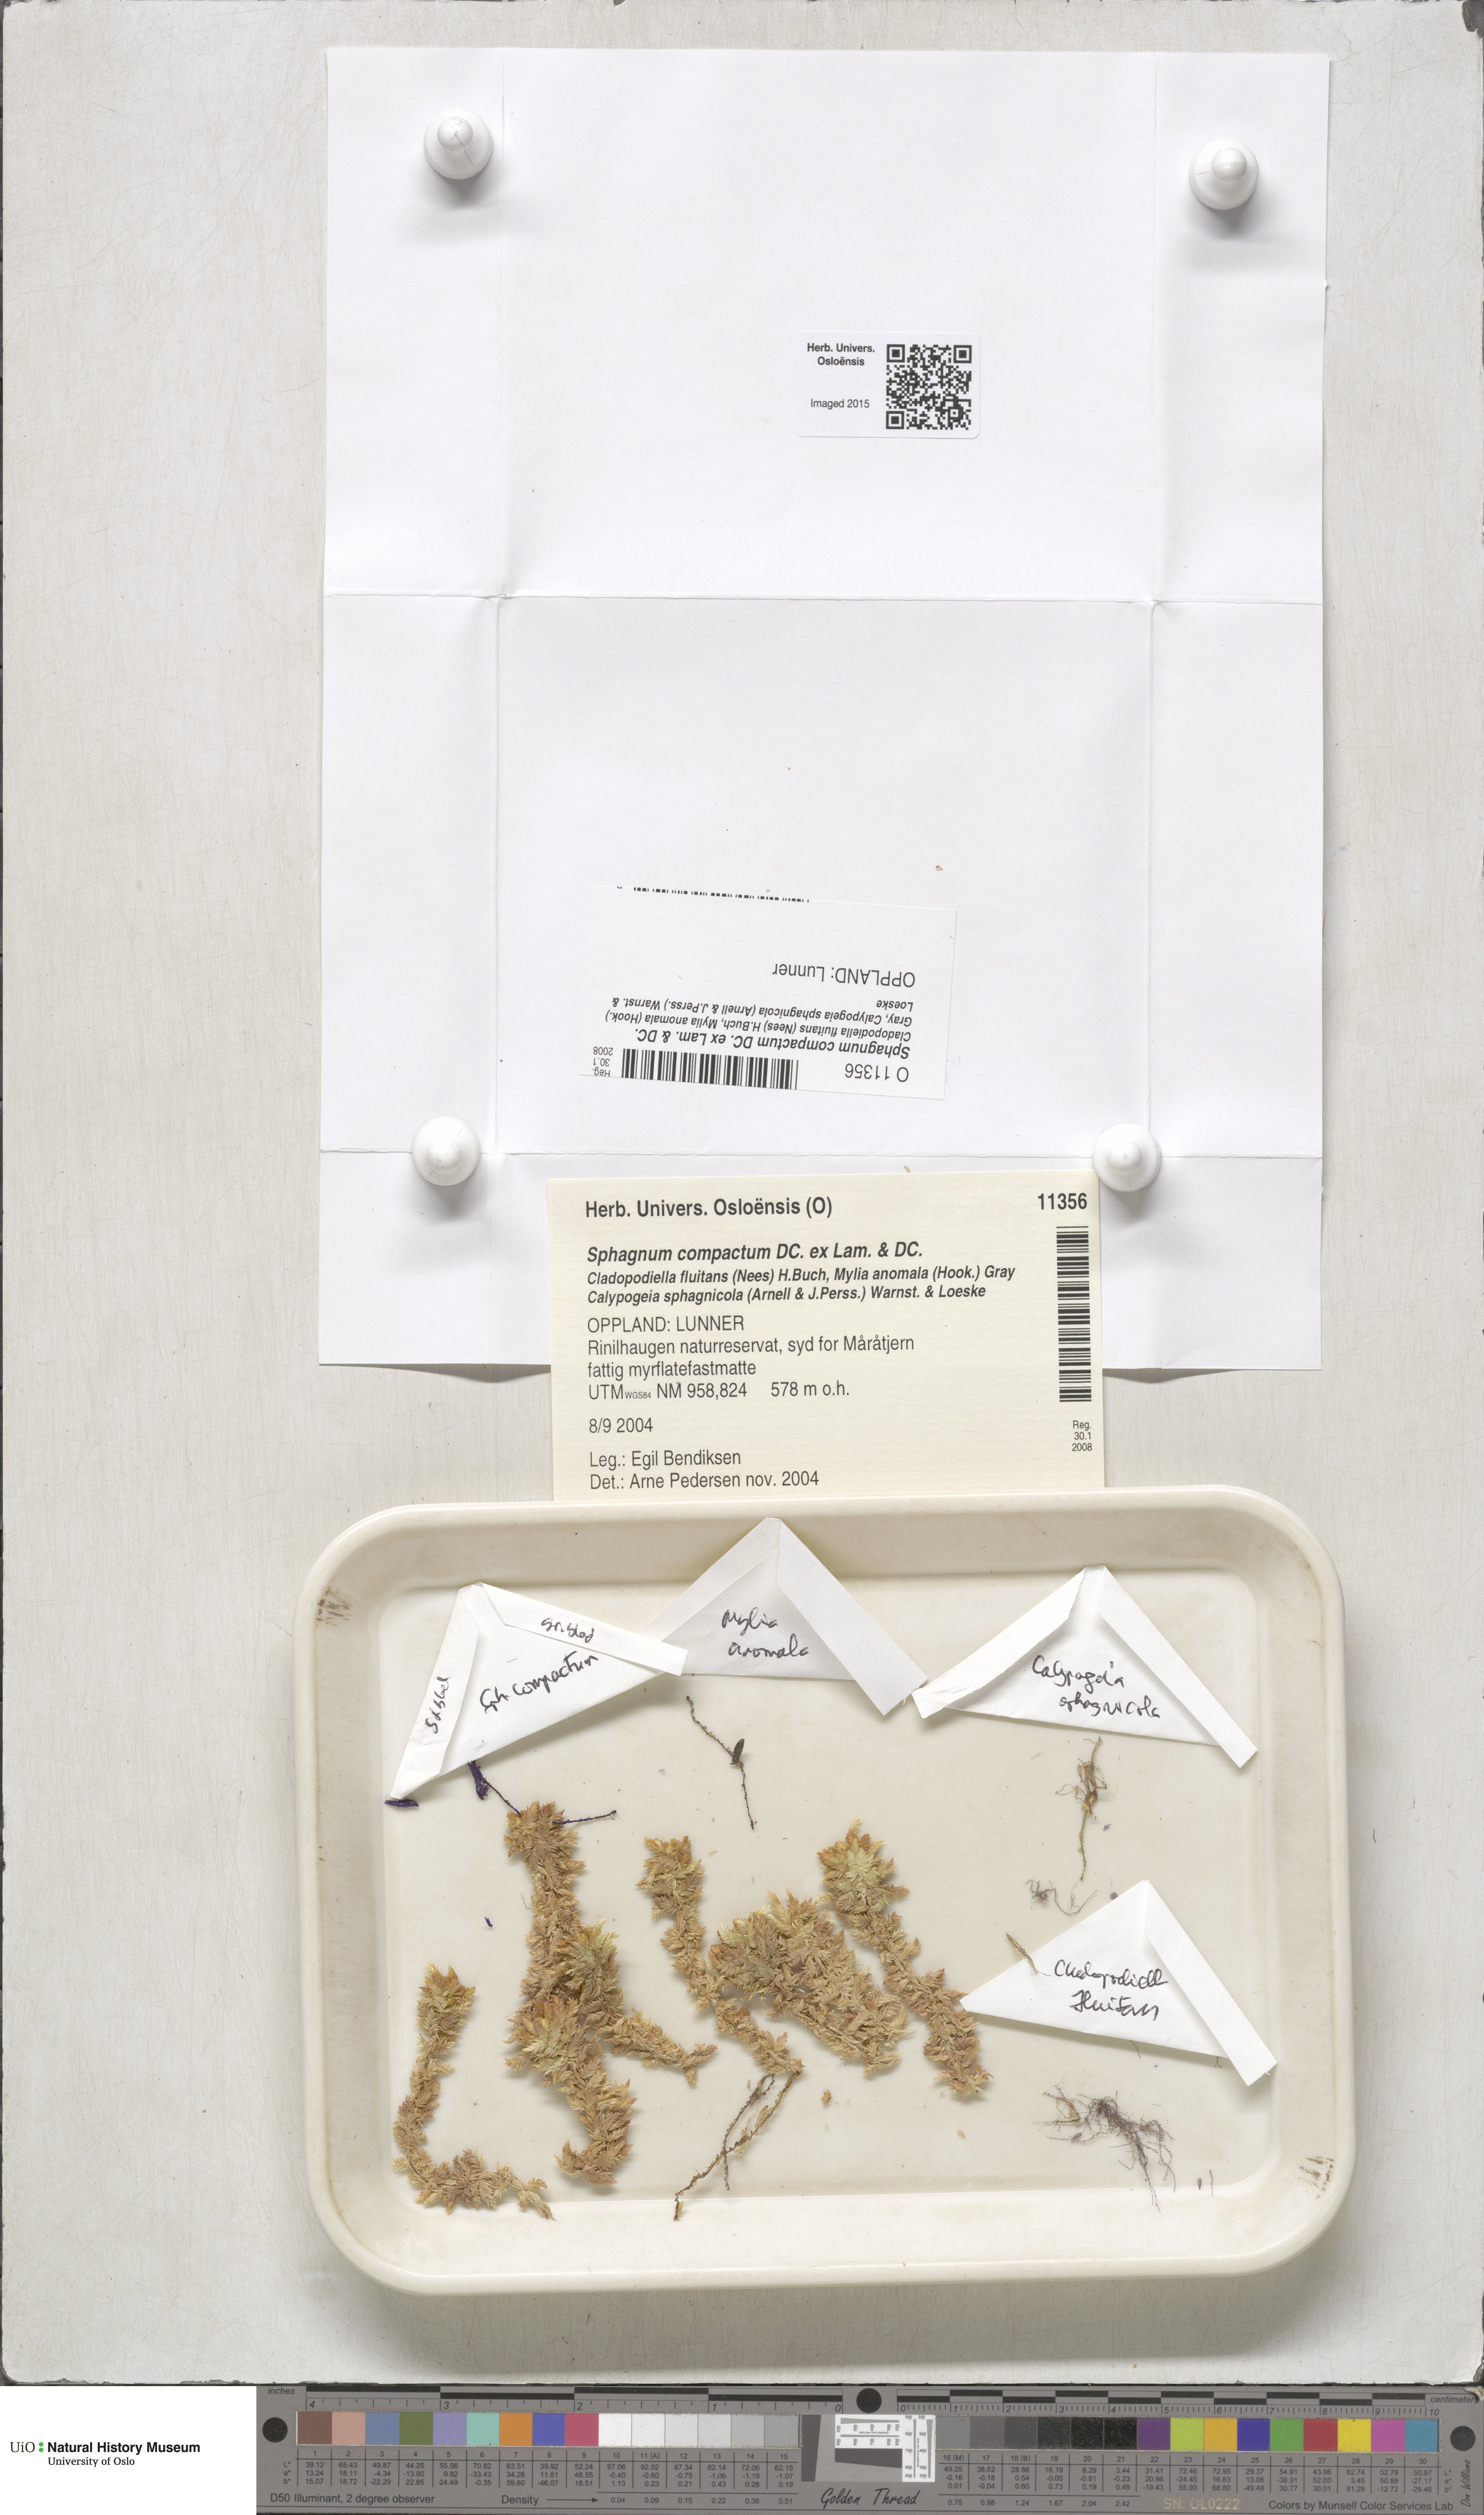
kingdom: Plantae
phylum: Bryophyta
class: Sphagnopsida
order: Sphagnales
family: Sphagnaceae
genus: Sphagnum
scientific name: Sphagnum compactum
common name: Compact peat moss
